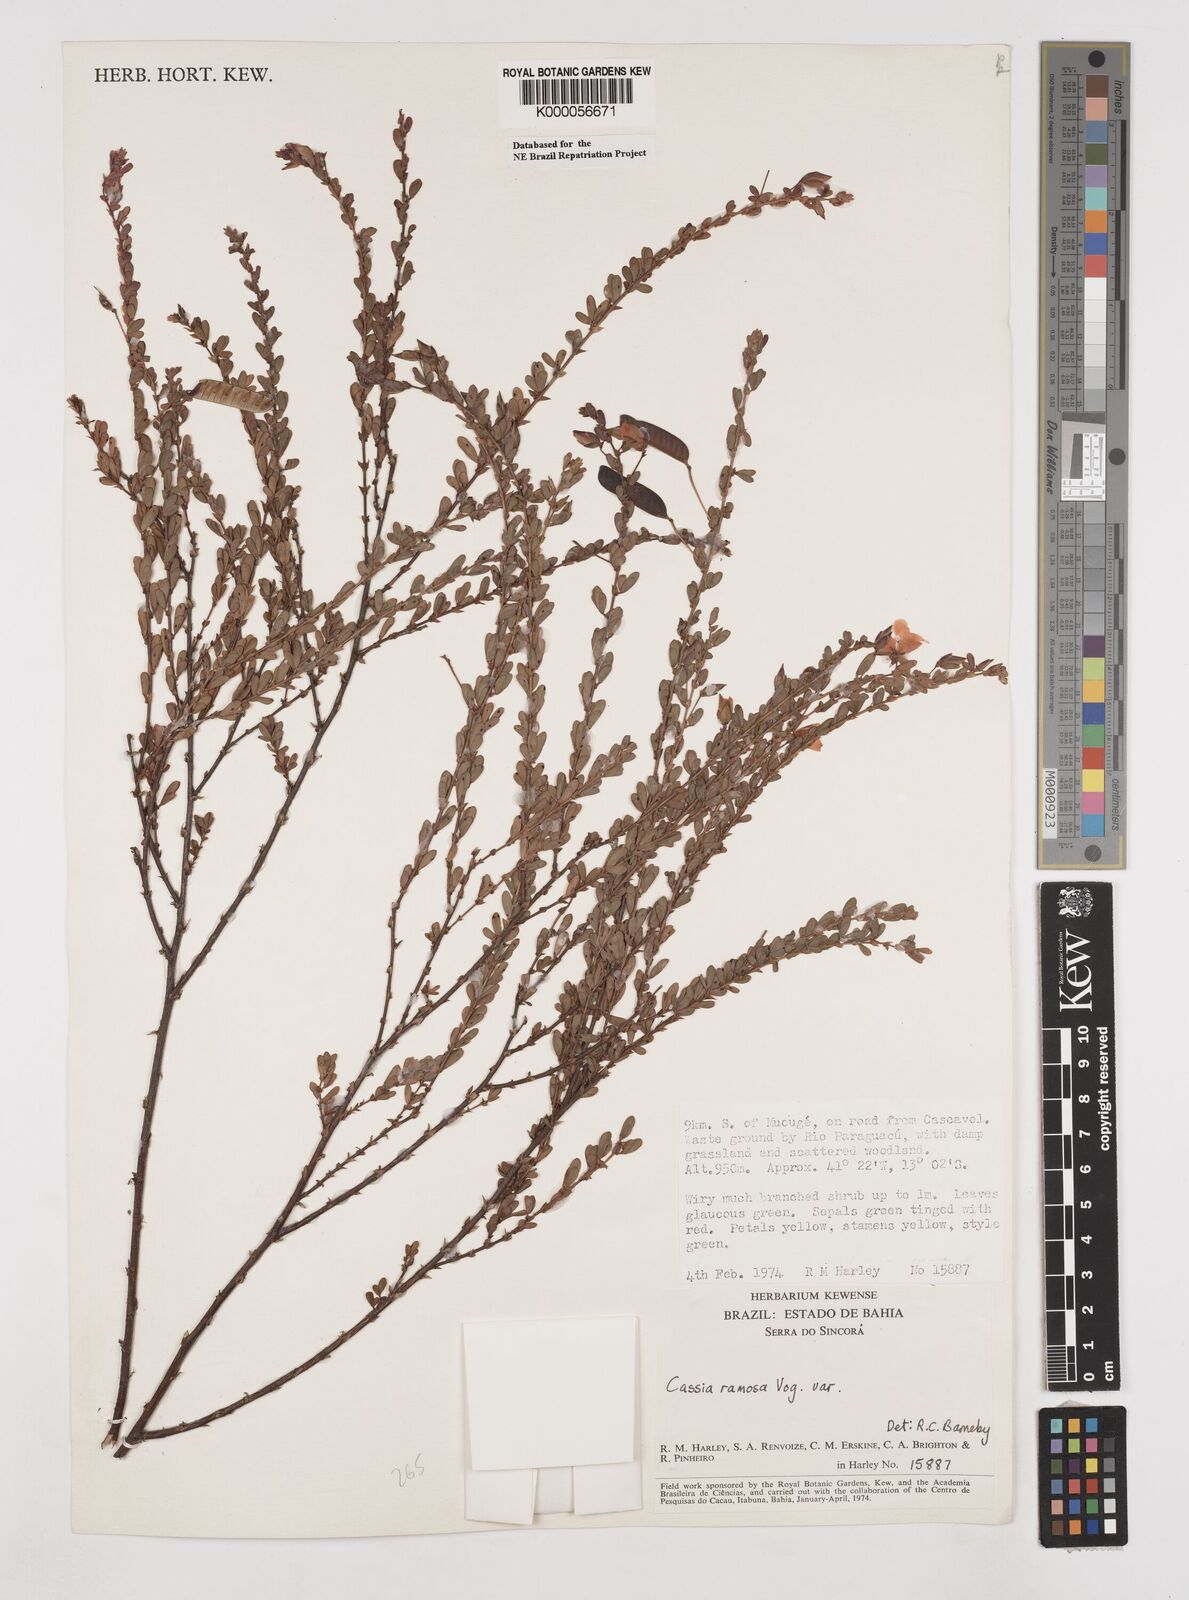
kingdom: Plantae
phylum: Tracheophyta
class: Magnoliopsida
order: Fabales
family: Fabaceae
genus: Chamaecrista
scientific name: Chamaecrista ramosa
